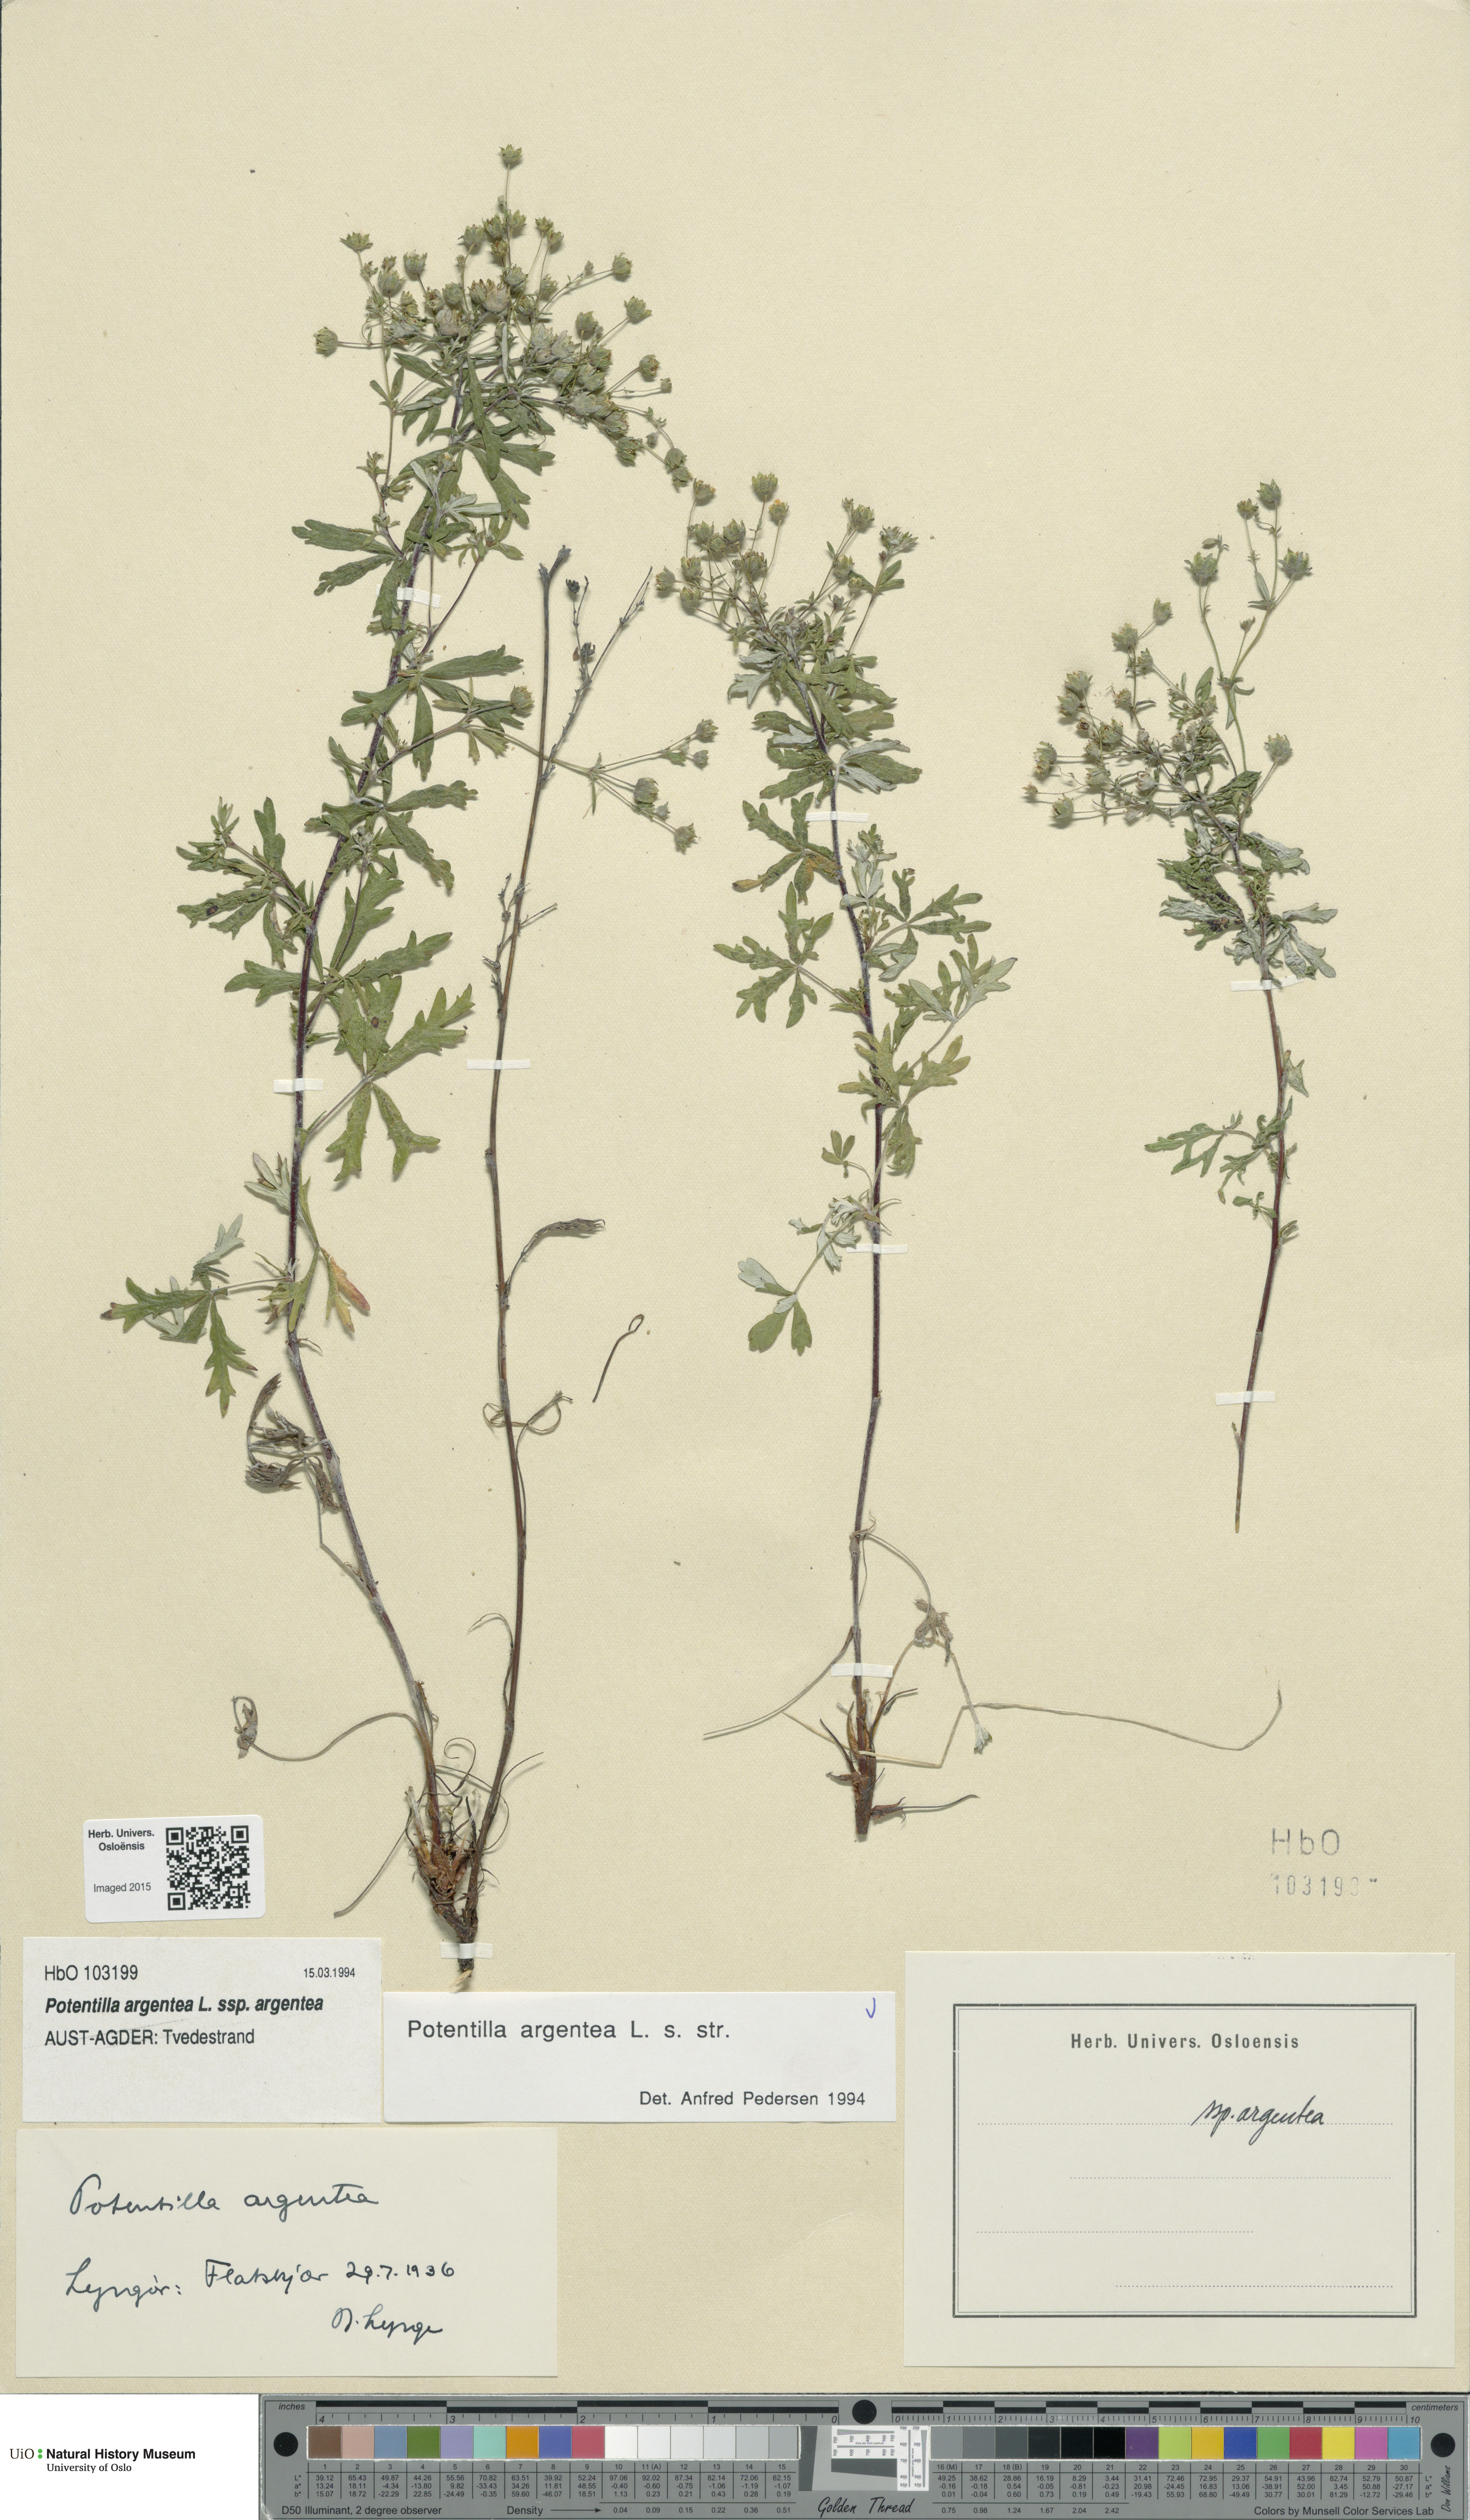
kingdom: Plantae
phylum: Tracheophyta
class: Magnoliopsida
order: Rosales
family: Rosaceae
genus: Potentilla
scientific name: Potentilla argentea
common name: Hoary cinquefoil
